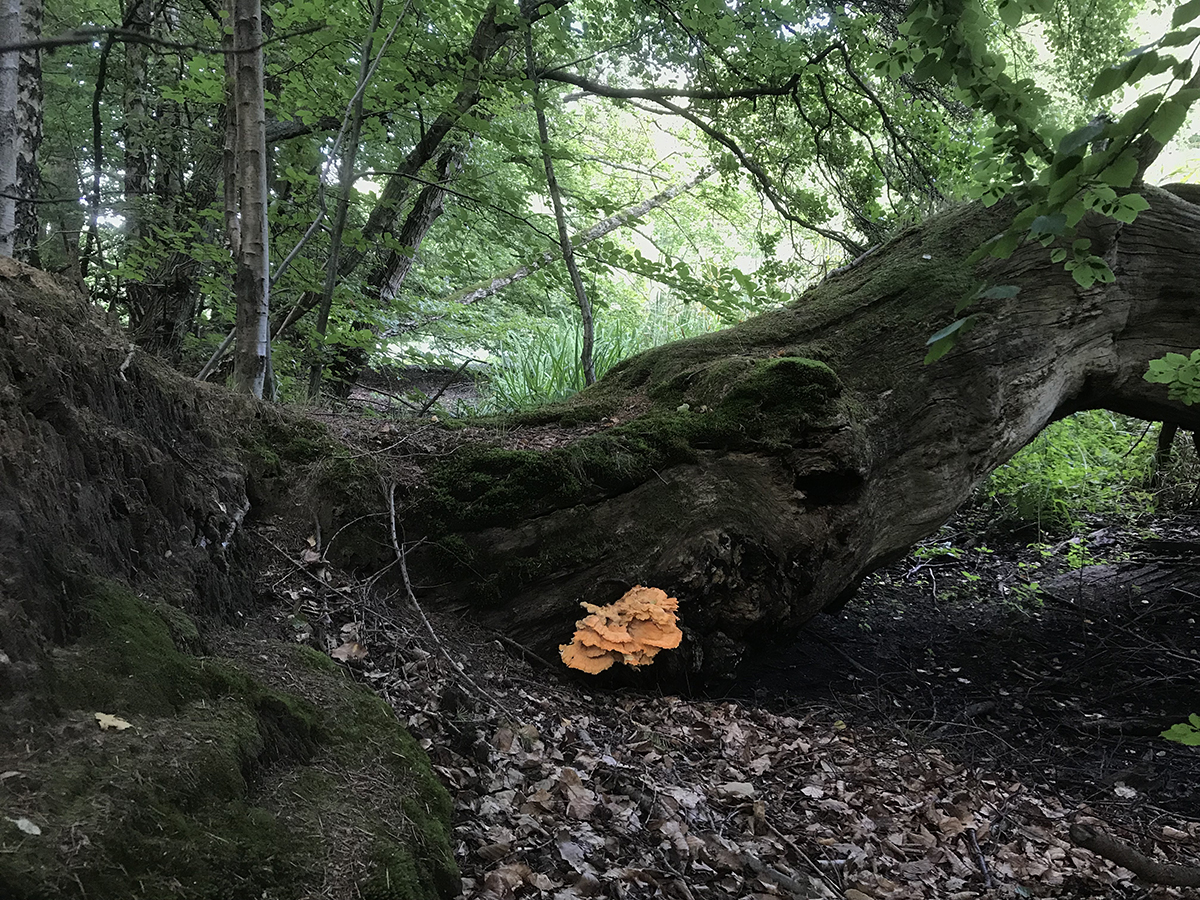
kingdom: Fungi
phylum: Basidiomycota
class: Agaricomycetes
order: Polyporales
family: Laetiporaceae
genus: Laetiporus
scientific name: Laetiporus sulphureus
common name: svovlporesvamp
